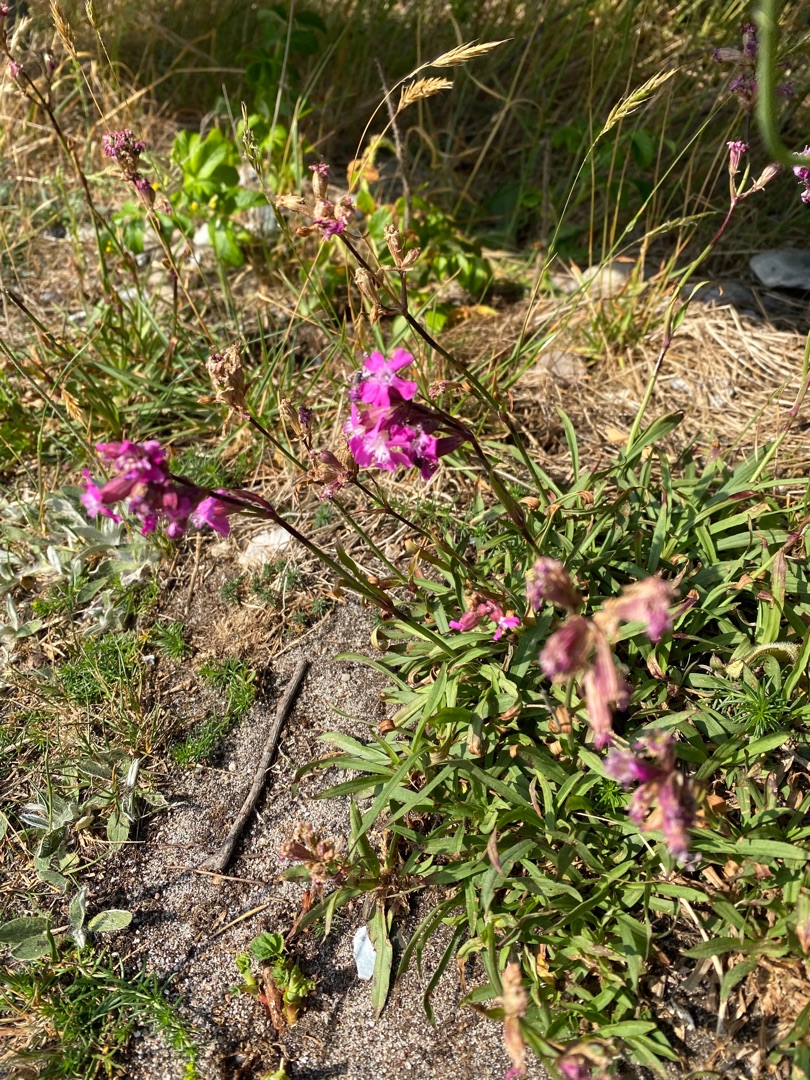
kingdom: Plantae
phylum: Tracheophyta
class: Magnoliopsida
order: Caryophyllales
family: Caryophyllaceae
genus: Viscaria
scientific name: Viscaria vulgaris
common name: Tjærenellike
